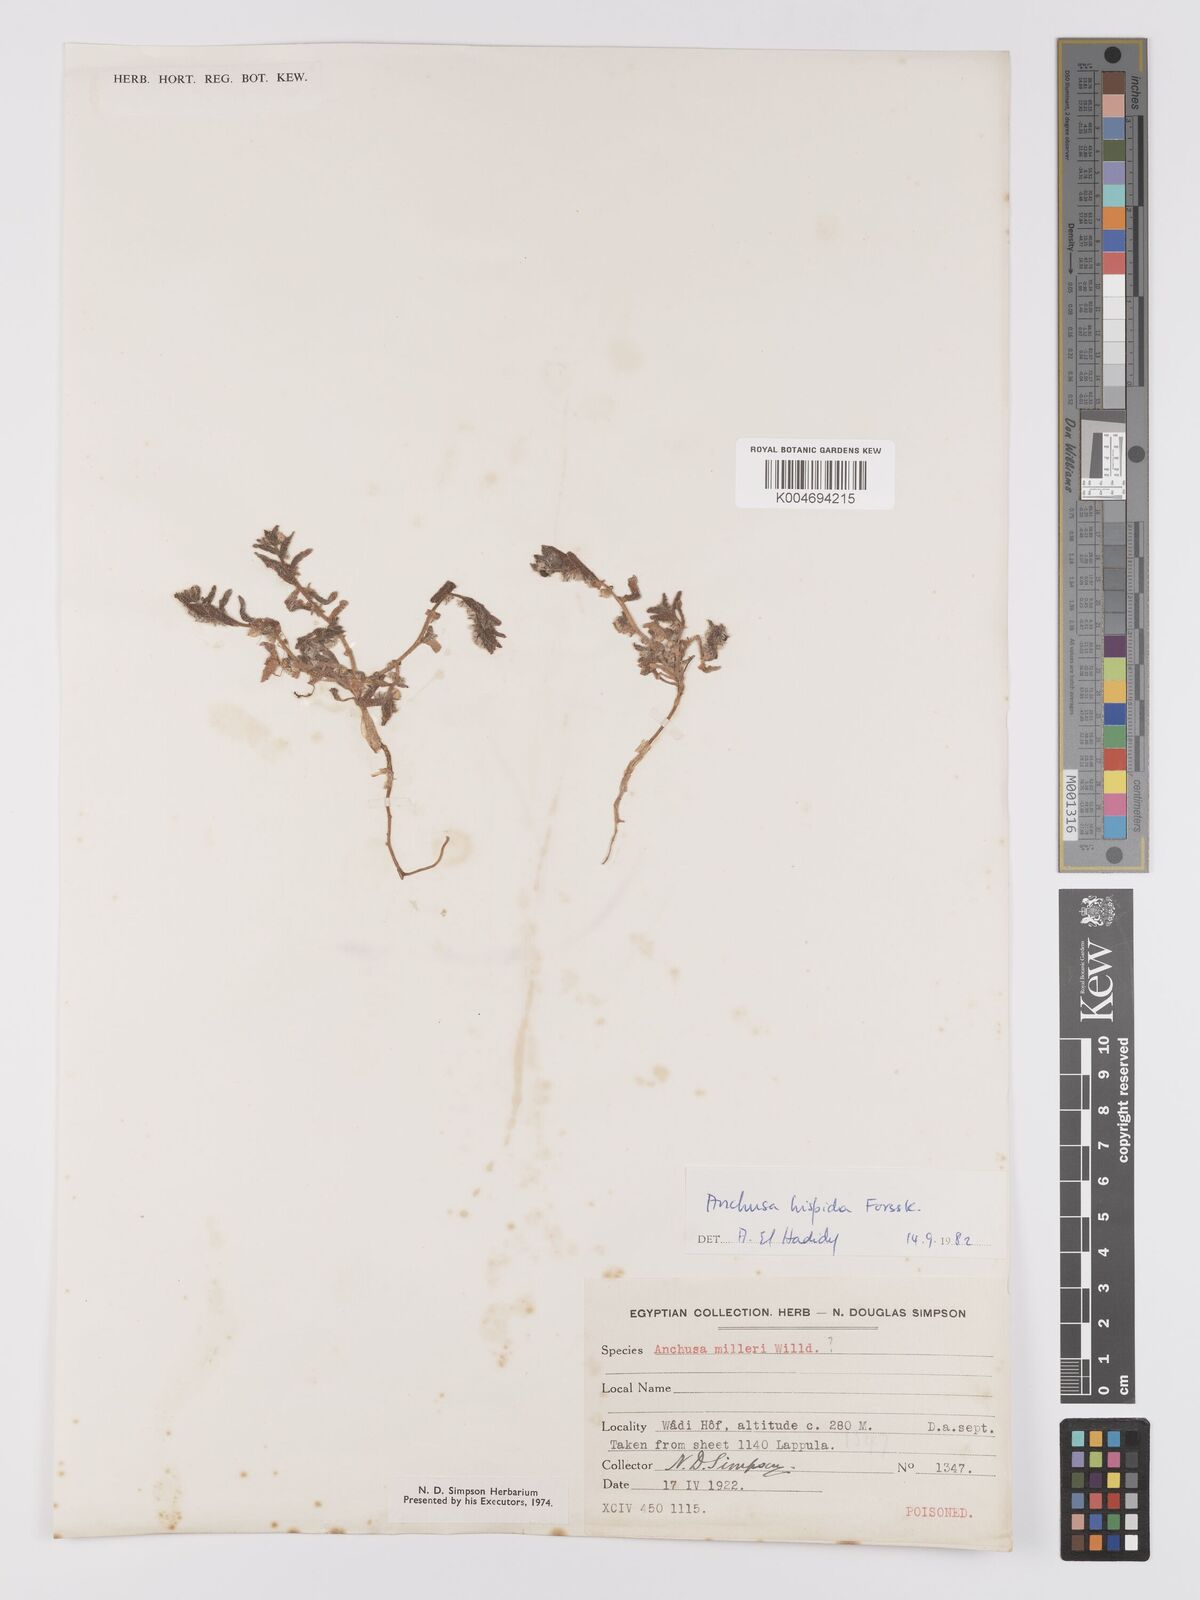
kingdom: Plantae
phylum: Tracheophyta
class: Magnoliopsida
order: Boraginales
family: Boraginaceae
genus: Gastrocotyle
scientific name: Gastrocotyle hispida
